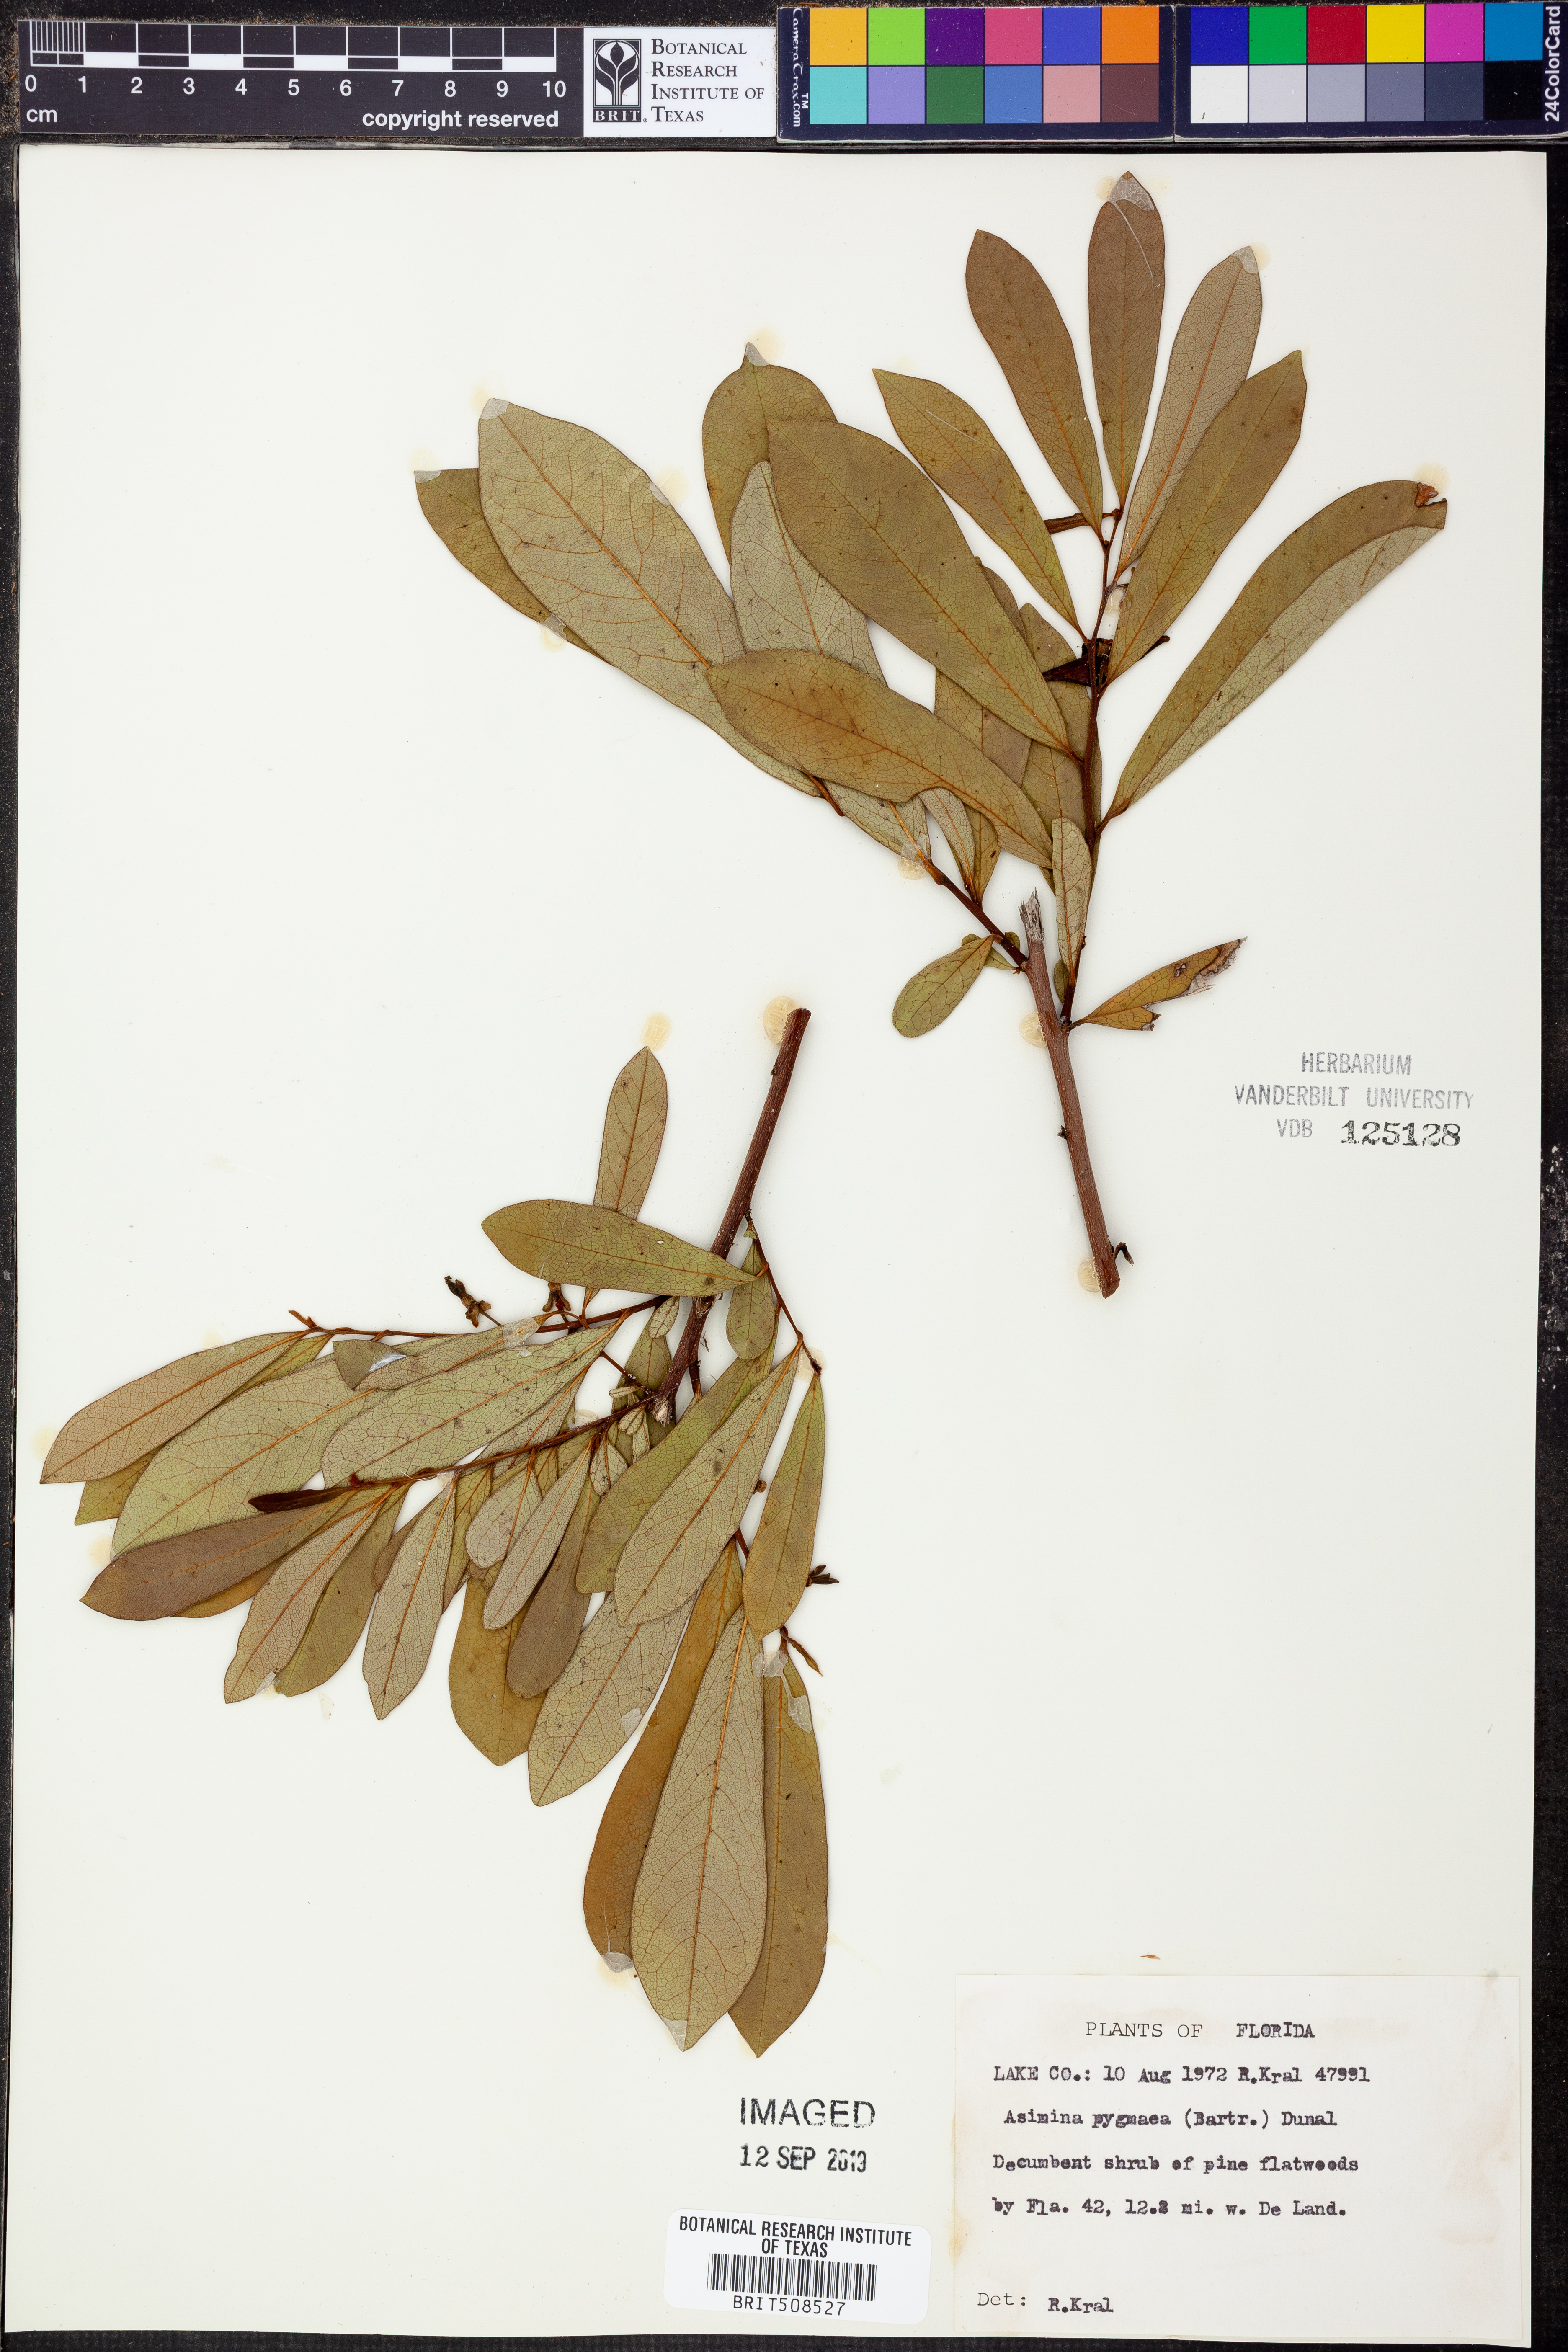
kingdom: Plantae
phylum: Tracheophyta
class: Magnoliopsida
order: Magnoliales
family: Annonaceae
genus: Asimina
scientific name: Asimina pygmaea
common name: Dwarf pawpaw
